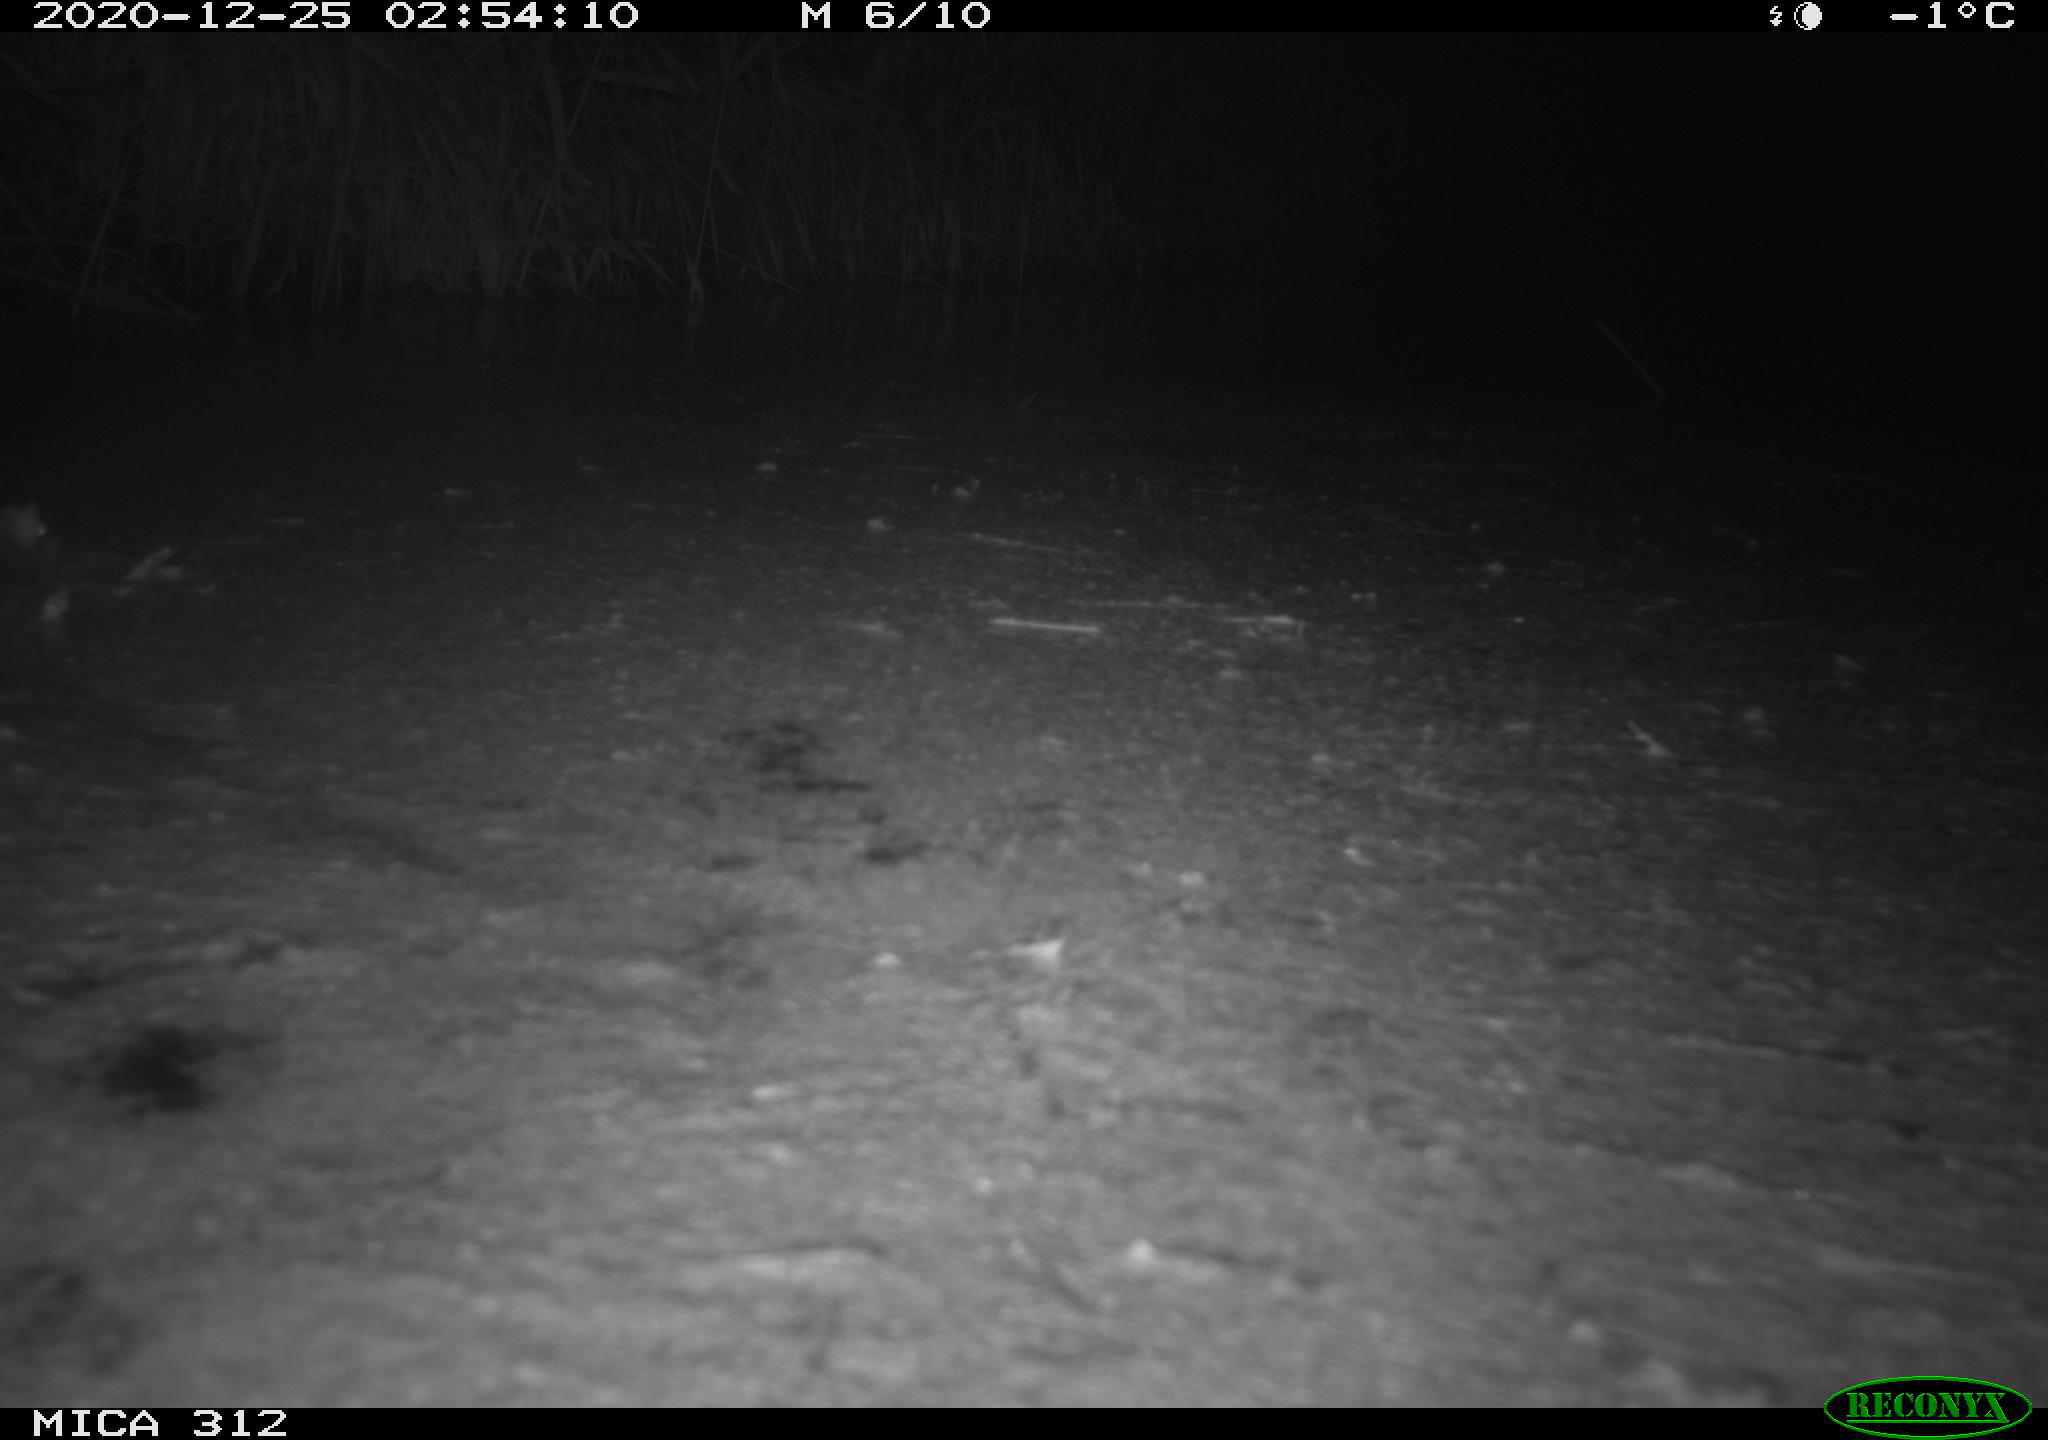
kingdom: Animalia
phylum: Chordata
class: Mammalia
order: Rodentia
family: Muridae
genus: Rattus
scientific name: Rattus norvegicus
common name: Brown rat
